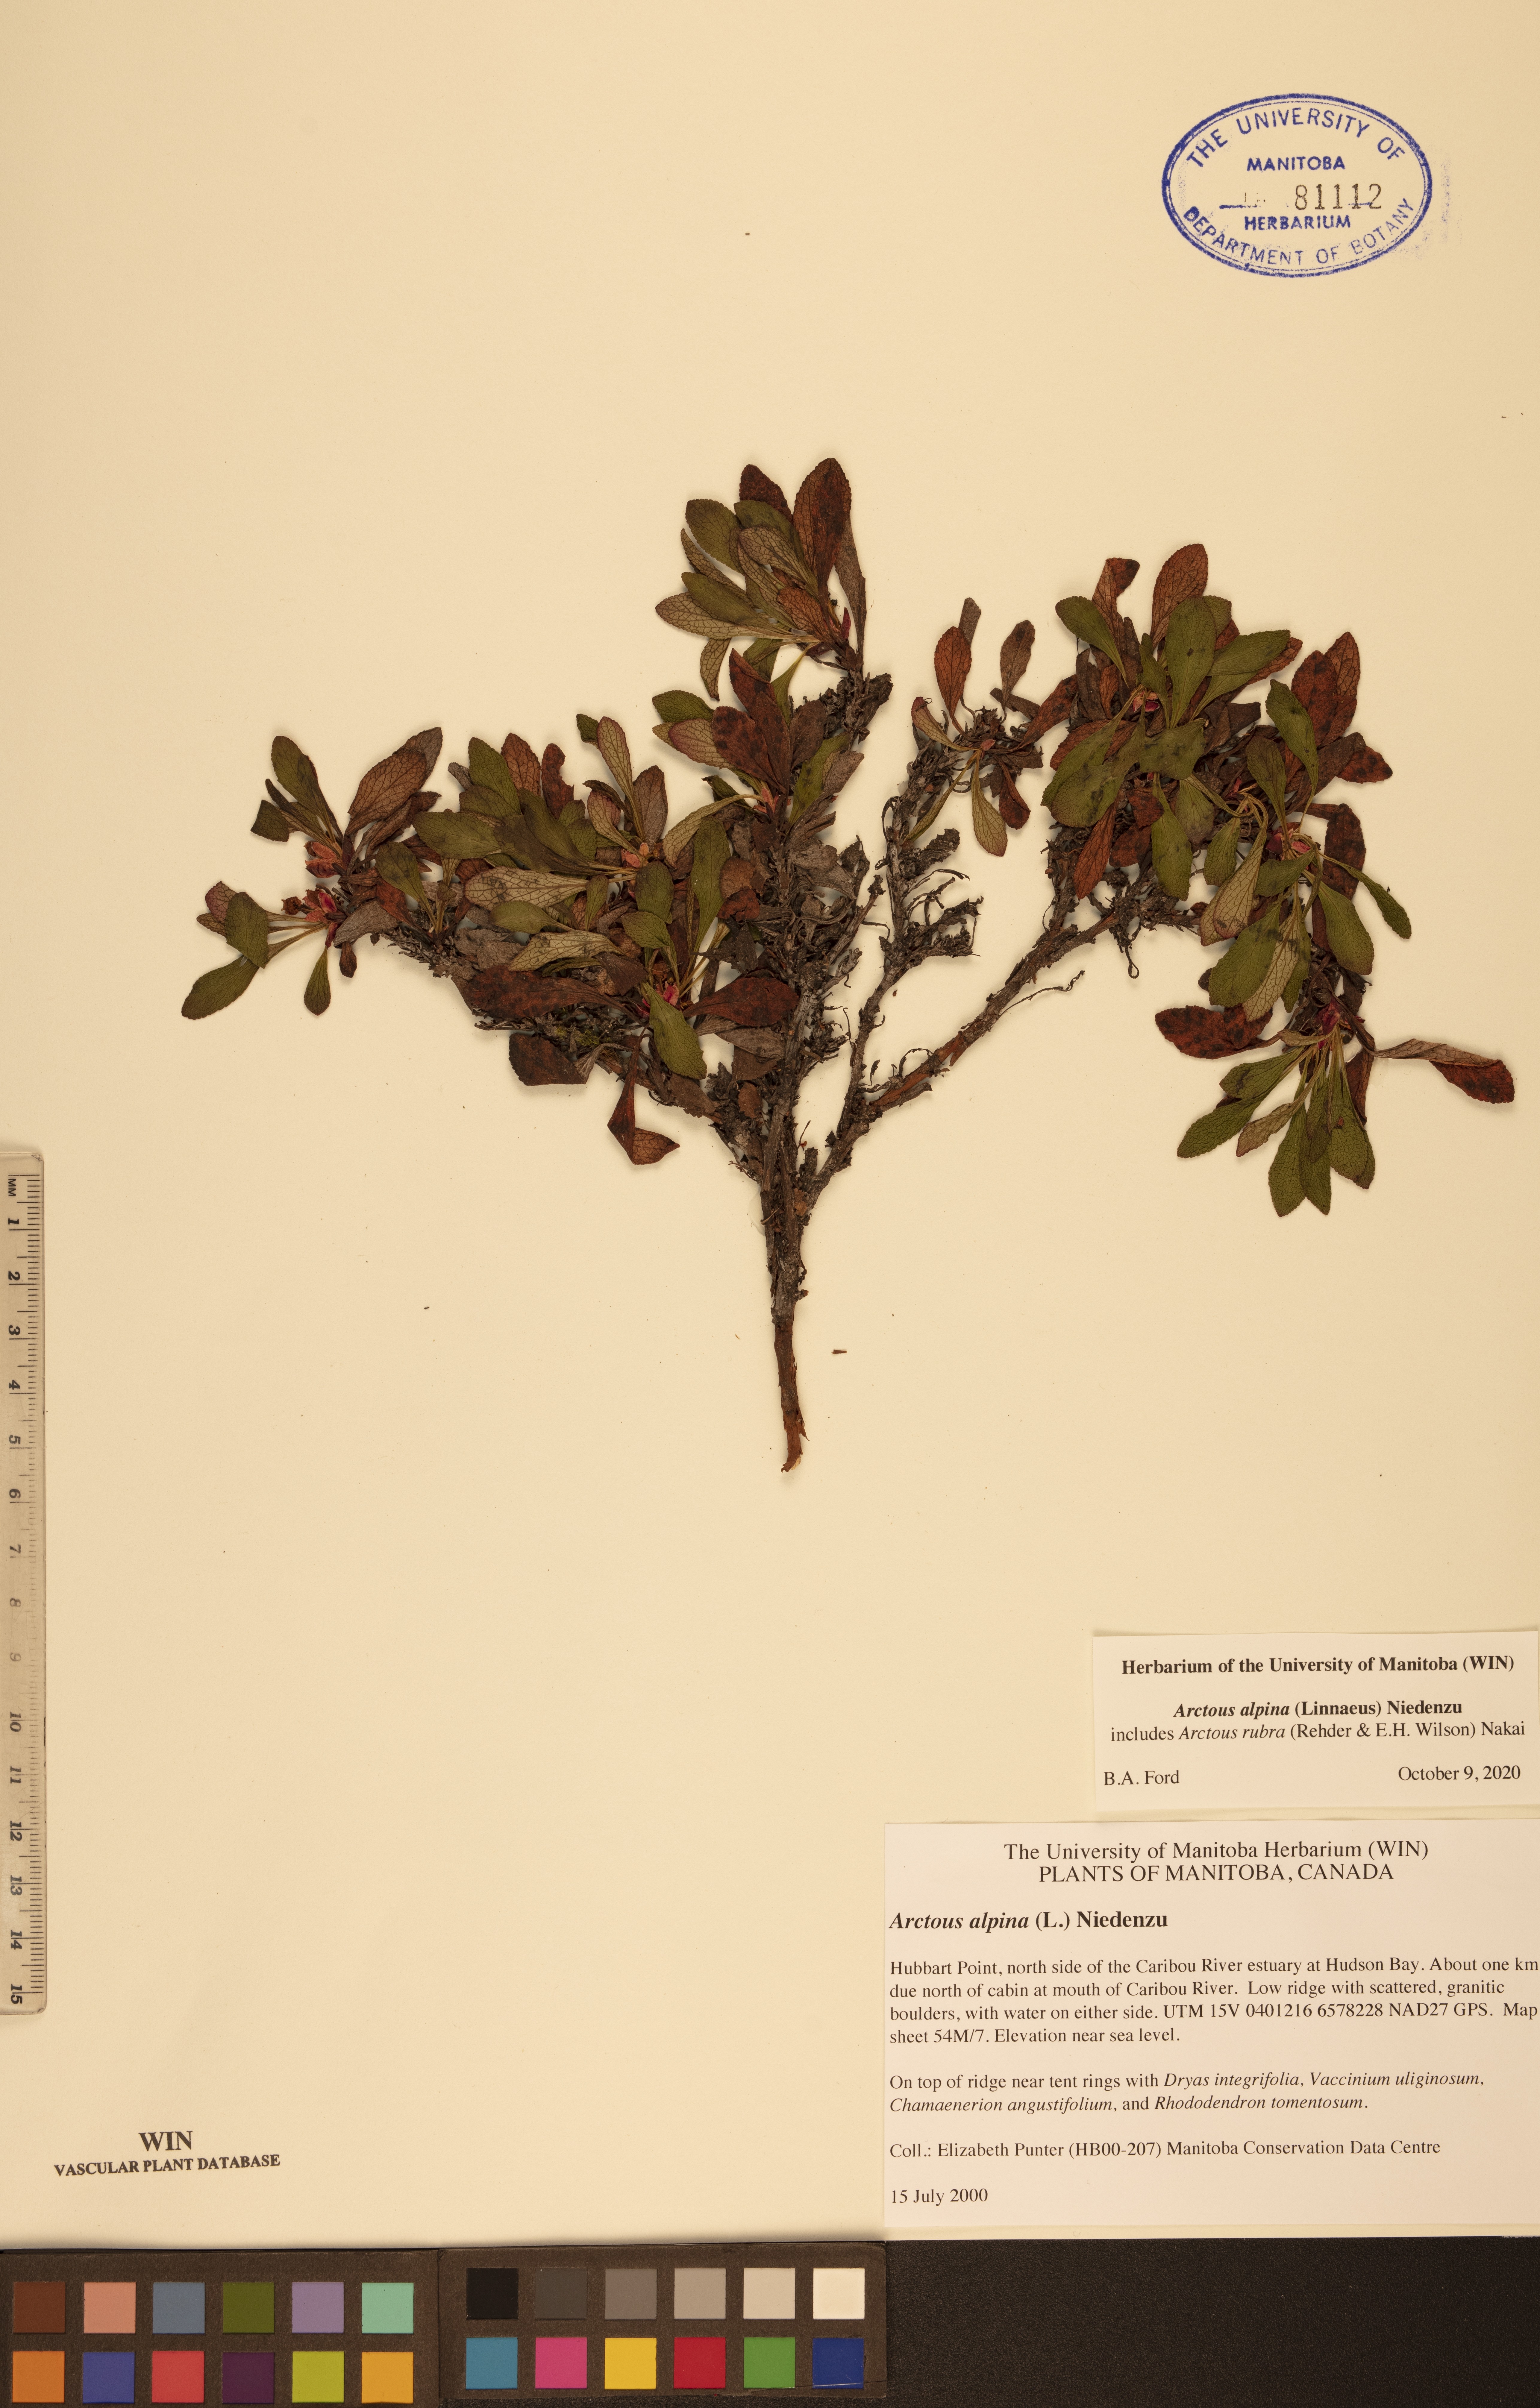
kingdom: Plantae
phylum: Tracheophyta
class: Magnoliopsida
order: Ericales
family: Ericaceae
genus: Arctostaphylos
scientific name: Arctostaphylos alpinus
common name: Alpine bearberry
